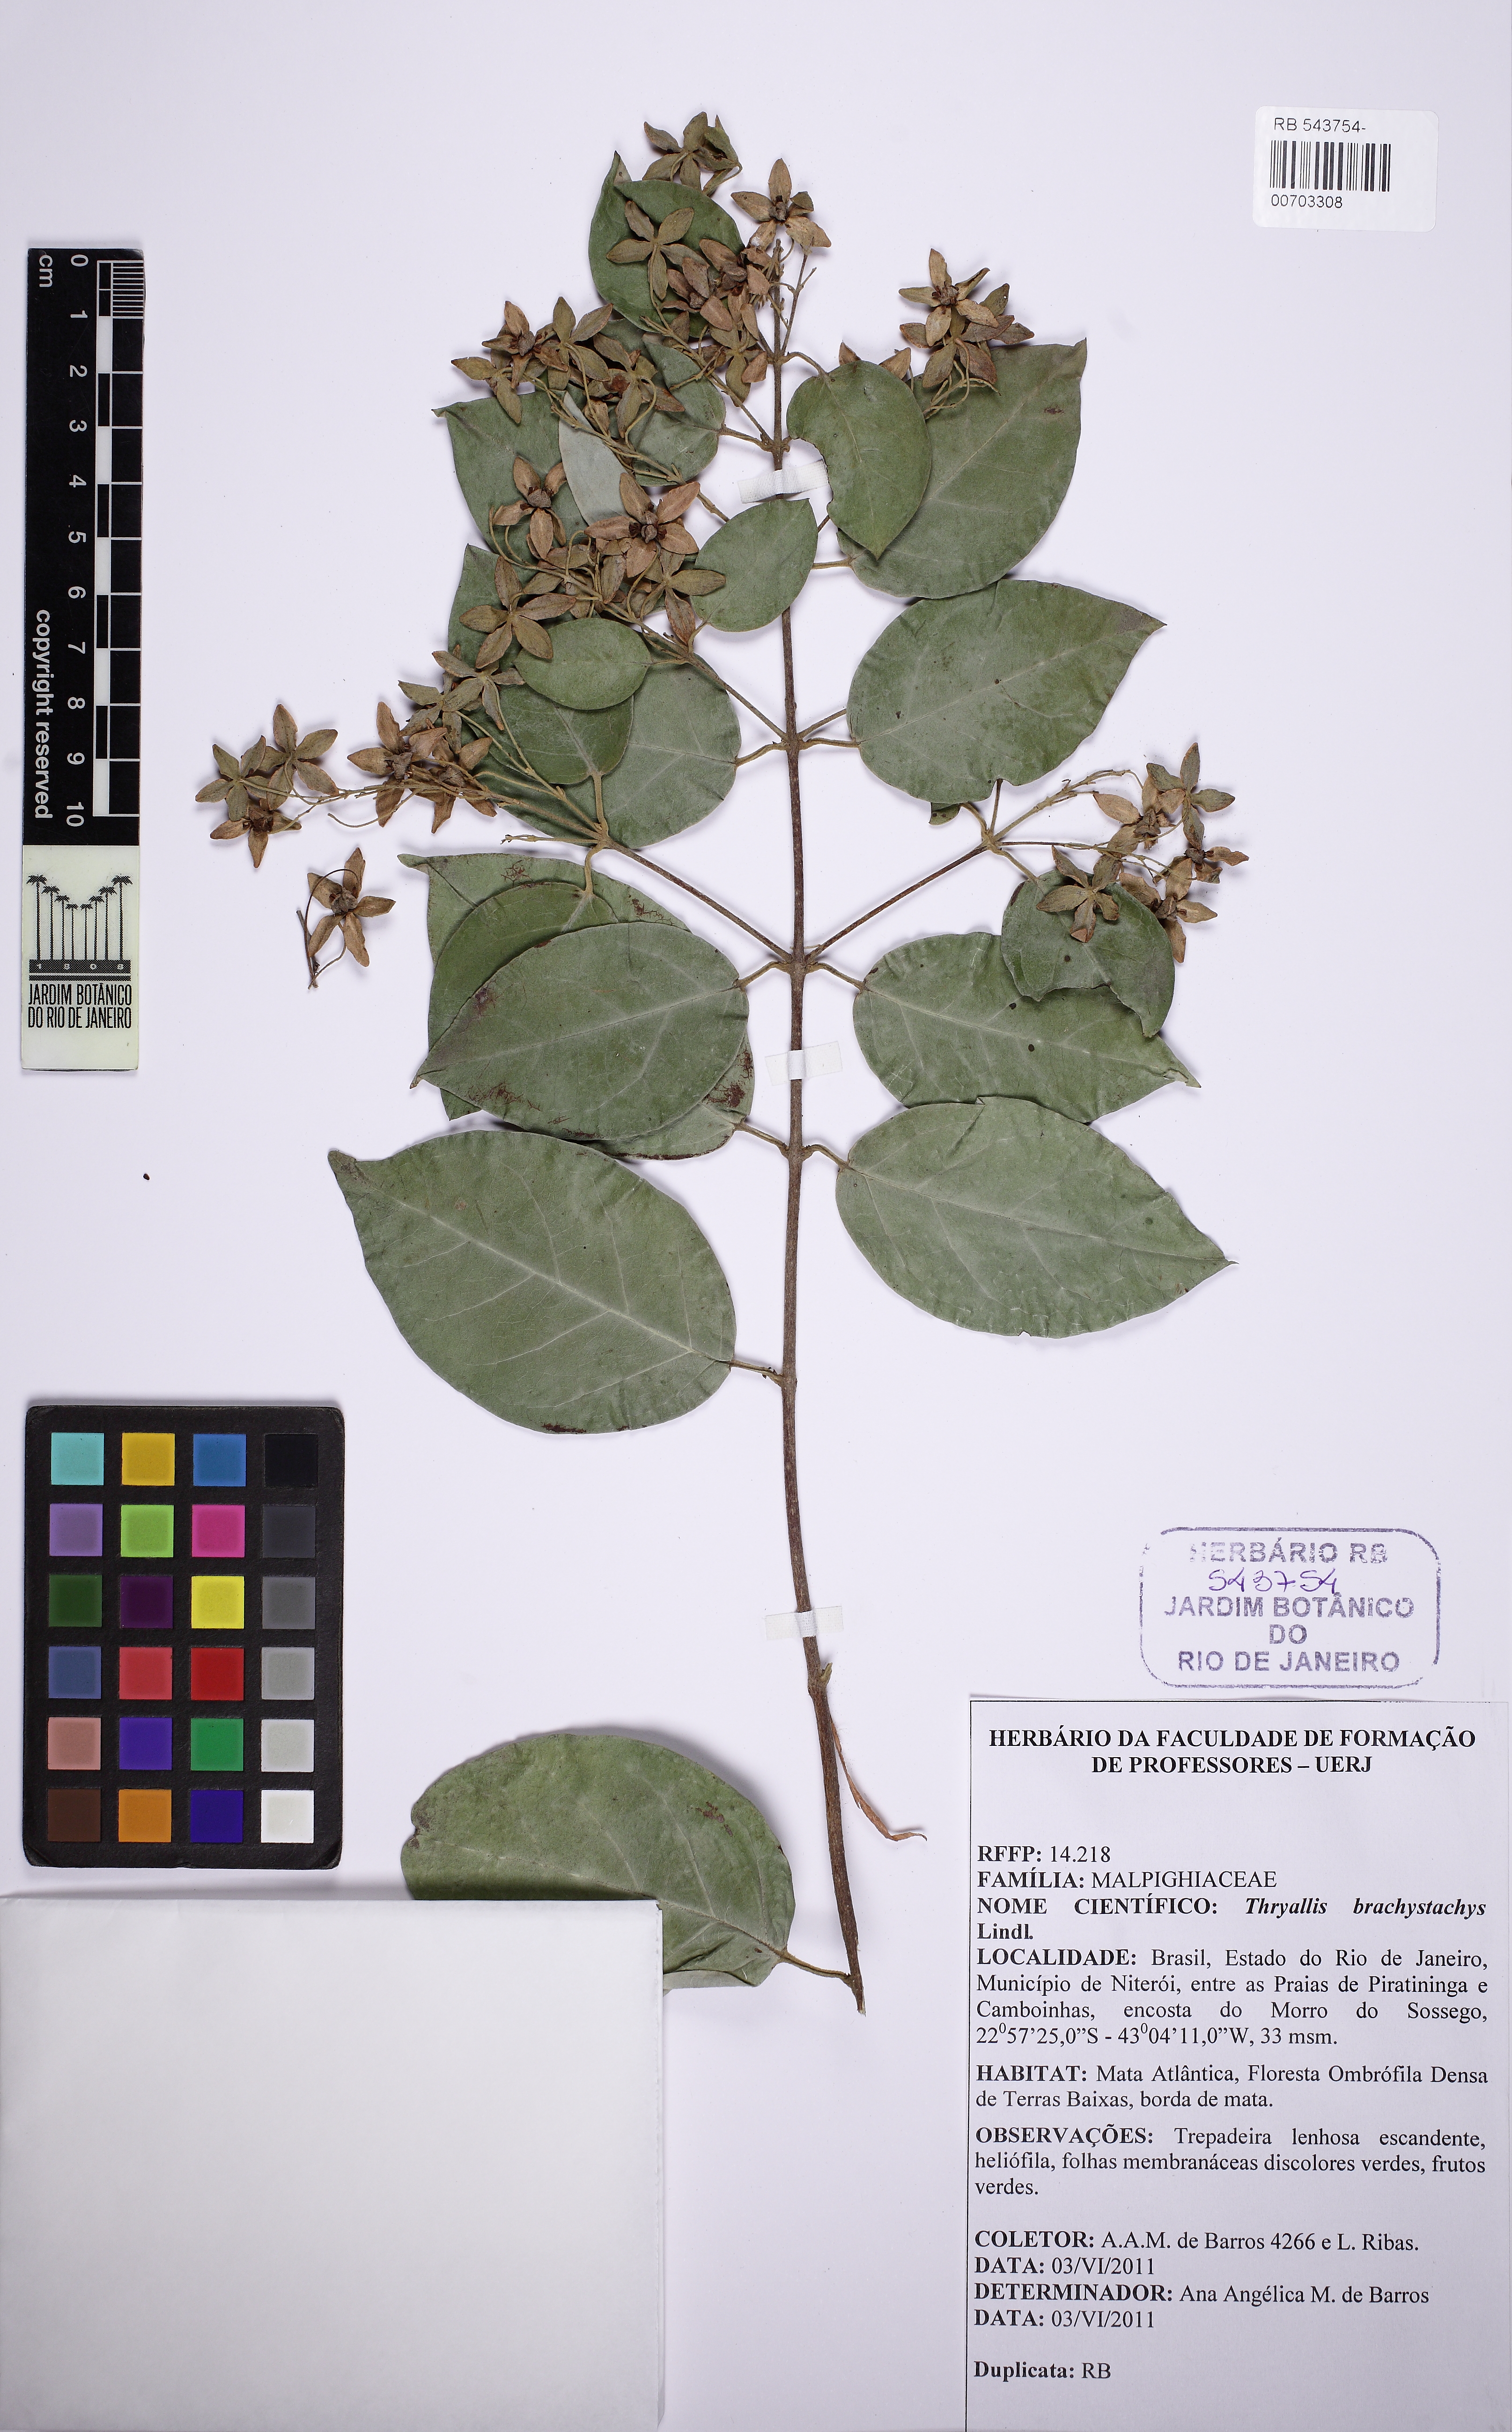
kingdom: Plantae
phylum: Tracheophyta
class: Magnoliopsida
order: Malpighiales
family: Malpighiaceae
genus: Thryallis
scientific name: Thryallis brachystachys
